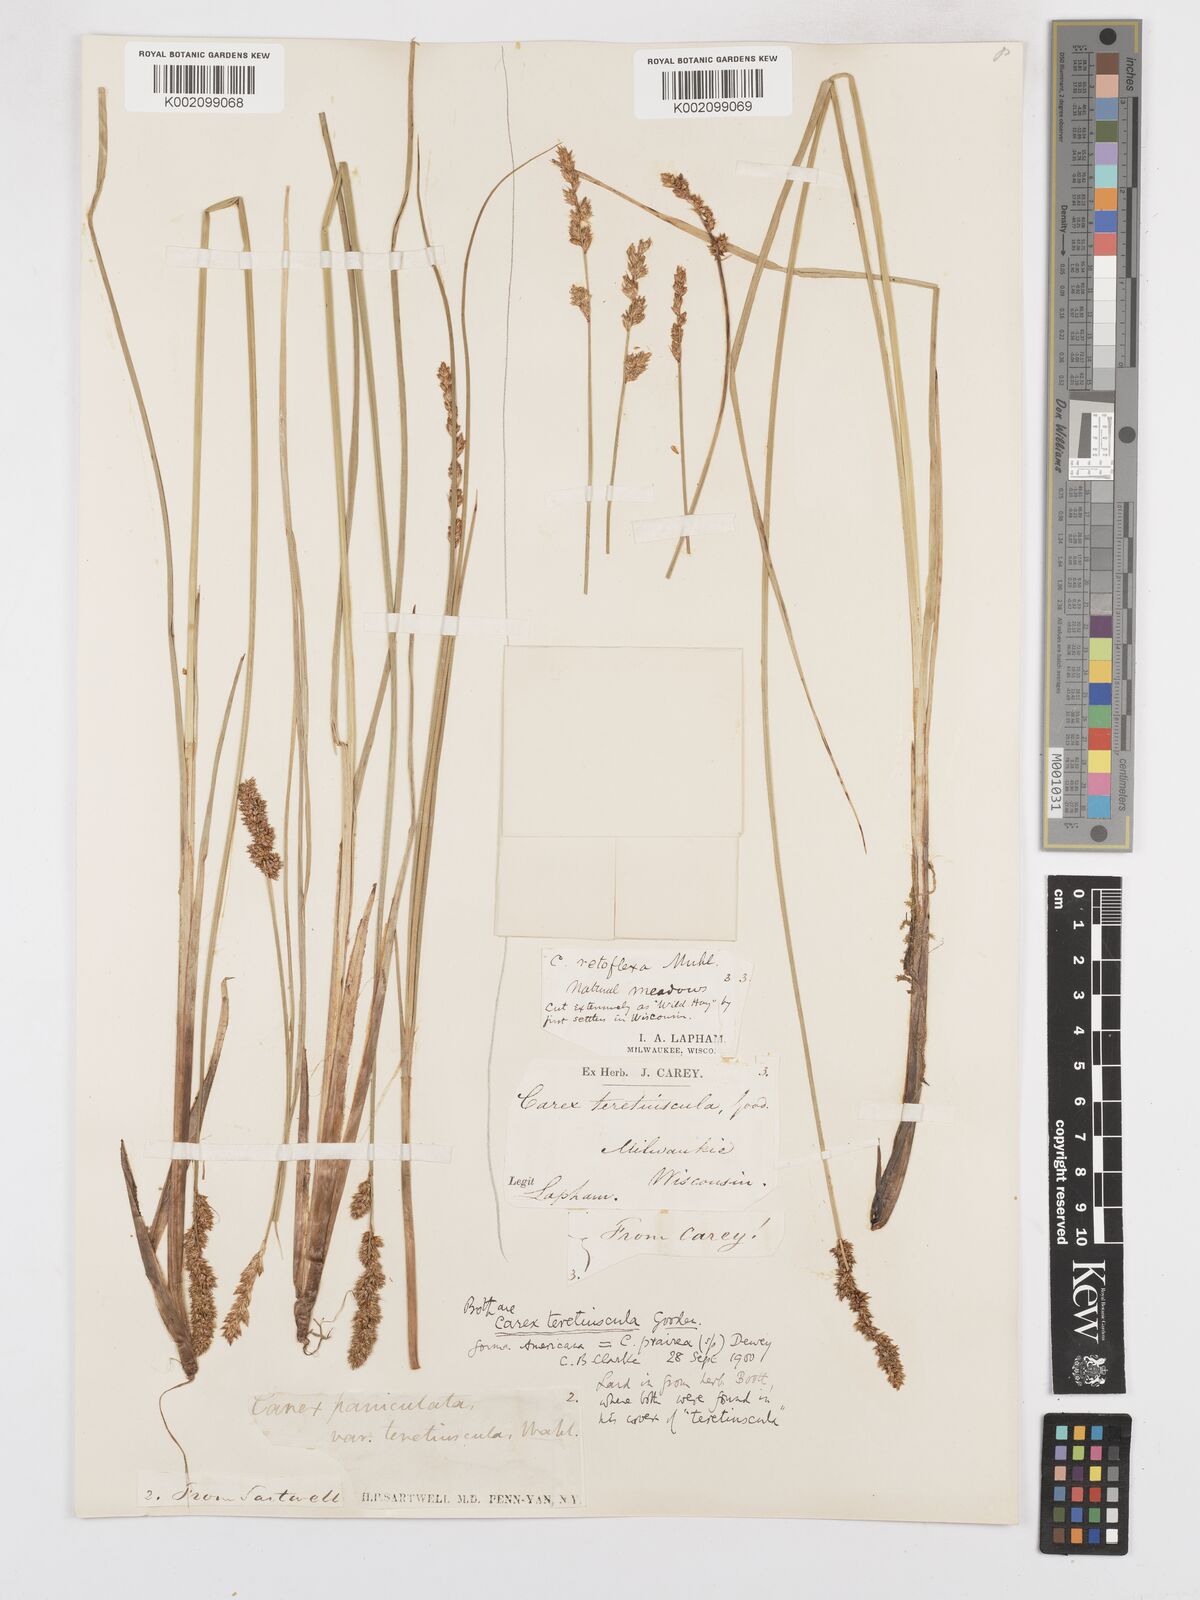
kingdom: Plantae
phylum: Tracheophyta
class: Liliopsida
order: Poales
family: Cyperaceae
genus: Carex
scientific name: Carex diandra
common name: Lesser tussock-sedge
